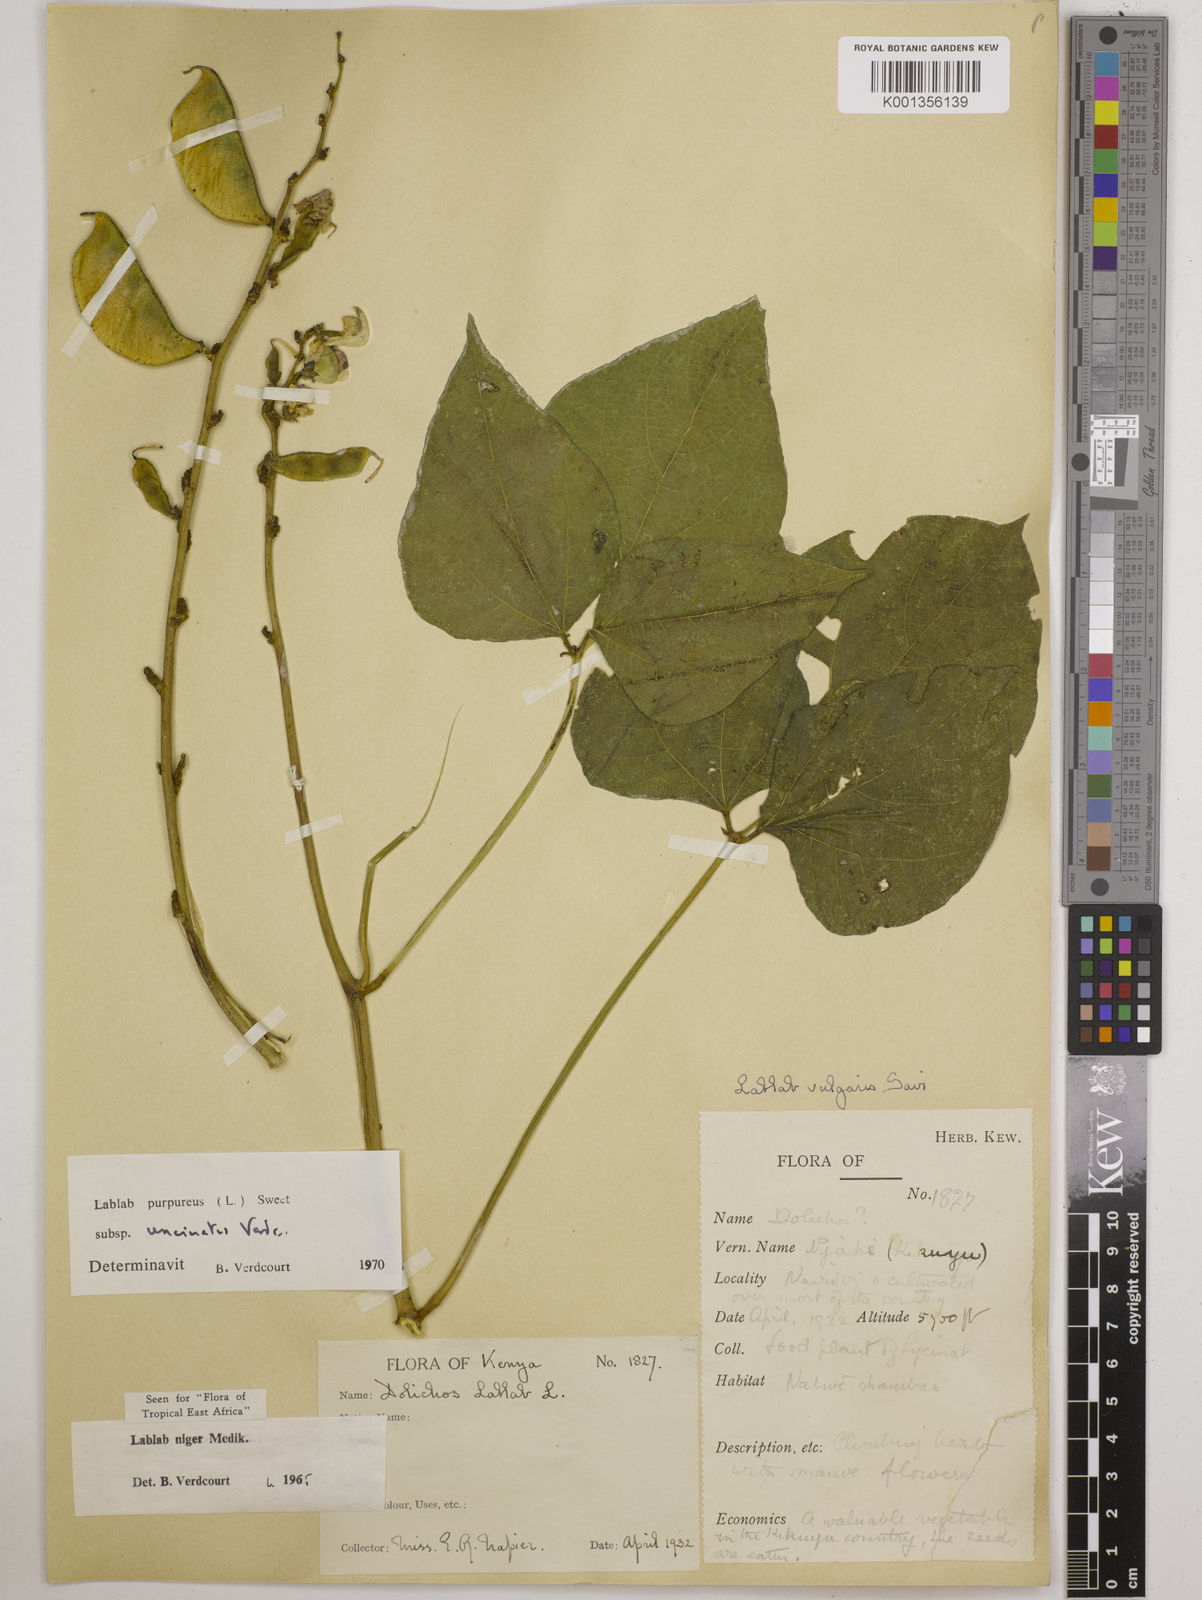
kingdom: Plantae
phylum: Tracheophyta
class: Magnoliopsida
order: Fabales
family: Fabaceae
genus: Lablab
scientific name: Lablab purpureus
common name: Lablab-bean
